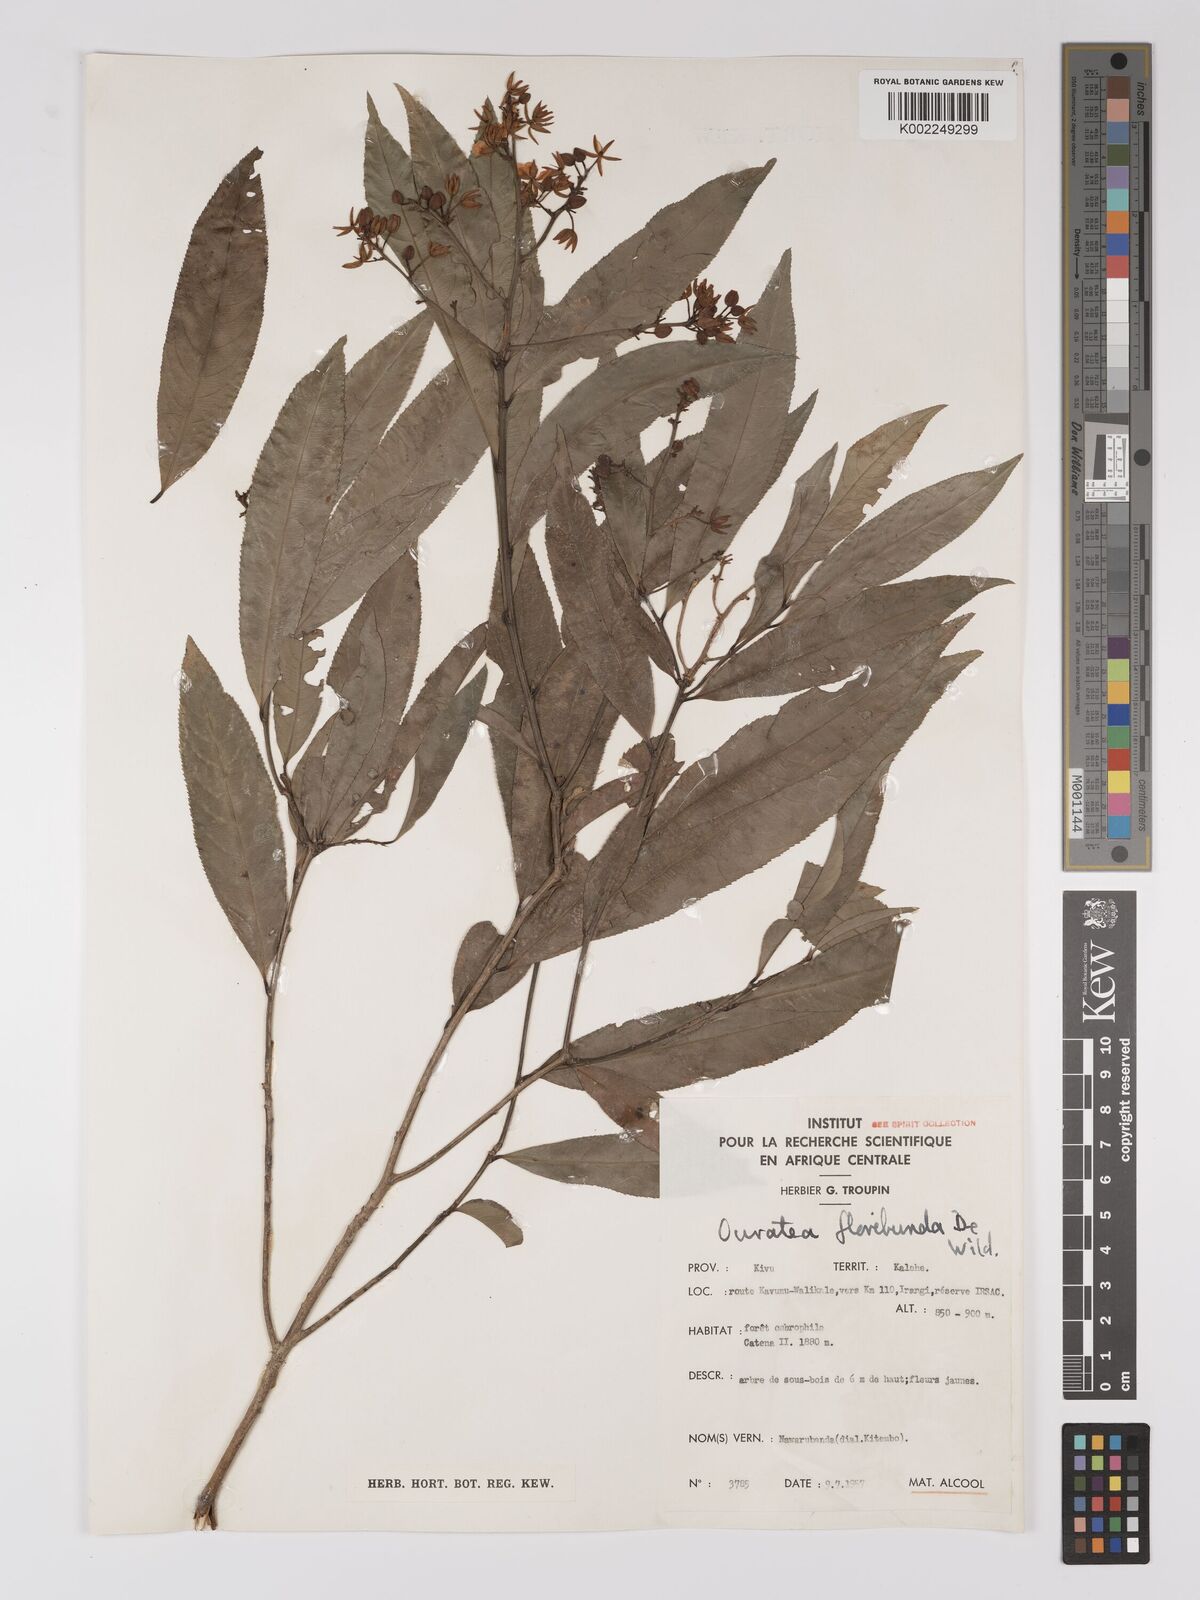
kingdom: Plantae
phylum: Tracheophyta
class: Magnoliopsida
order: Malpighiales
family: Ochnaceae
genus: Campylospermum
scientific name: Campylospermum likimiense
